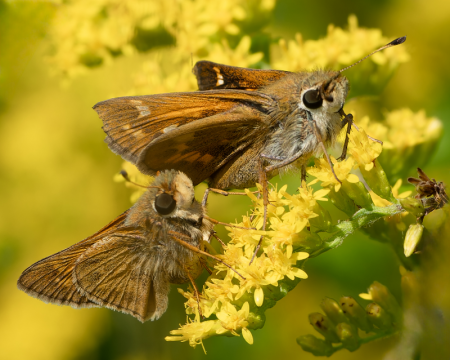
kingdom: Animalia
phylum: Arthropoda
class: Insecta
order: Lepidoptera
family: Hesperiidae
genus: Atalopedes
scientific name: Atalopedes campestris
